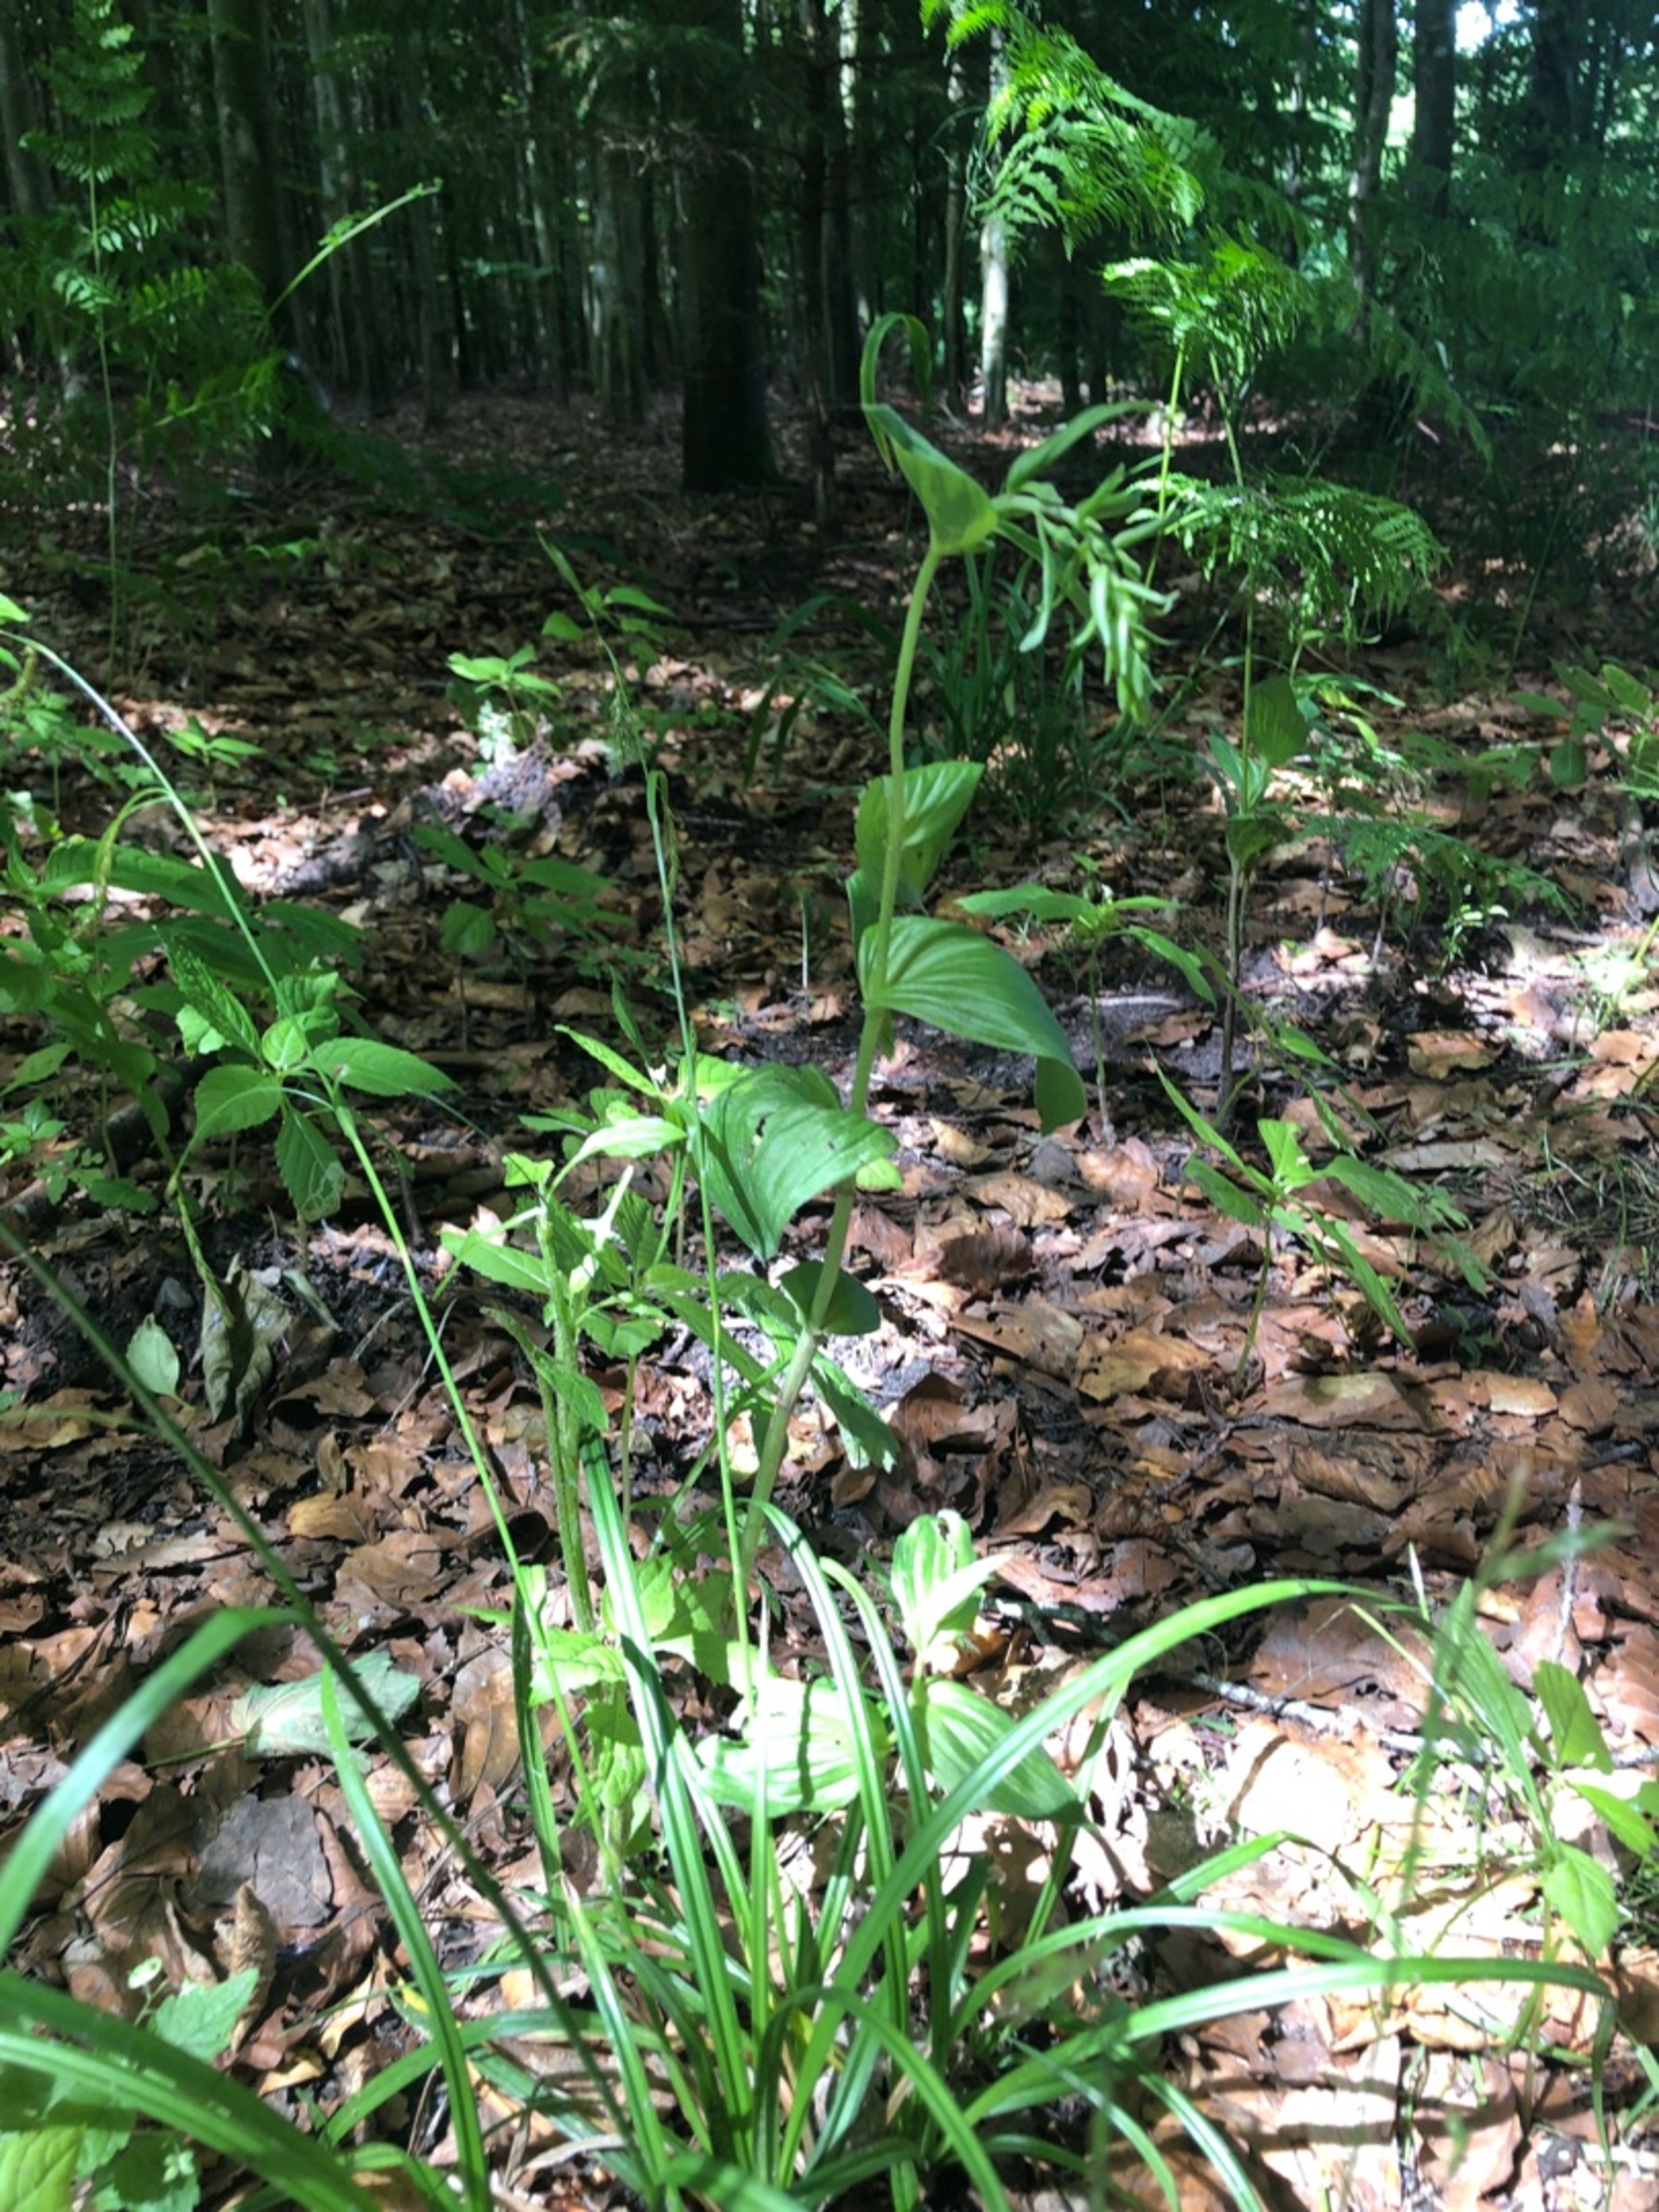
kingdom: Plantae
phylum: Tracheophyta
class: Liliopsida
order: Asparagales
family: Orchidaceae
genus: Epipactis
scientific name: Epipactis helleborine
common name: Skov-hullæbe
